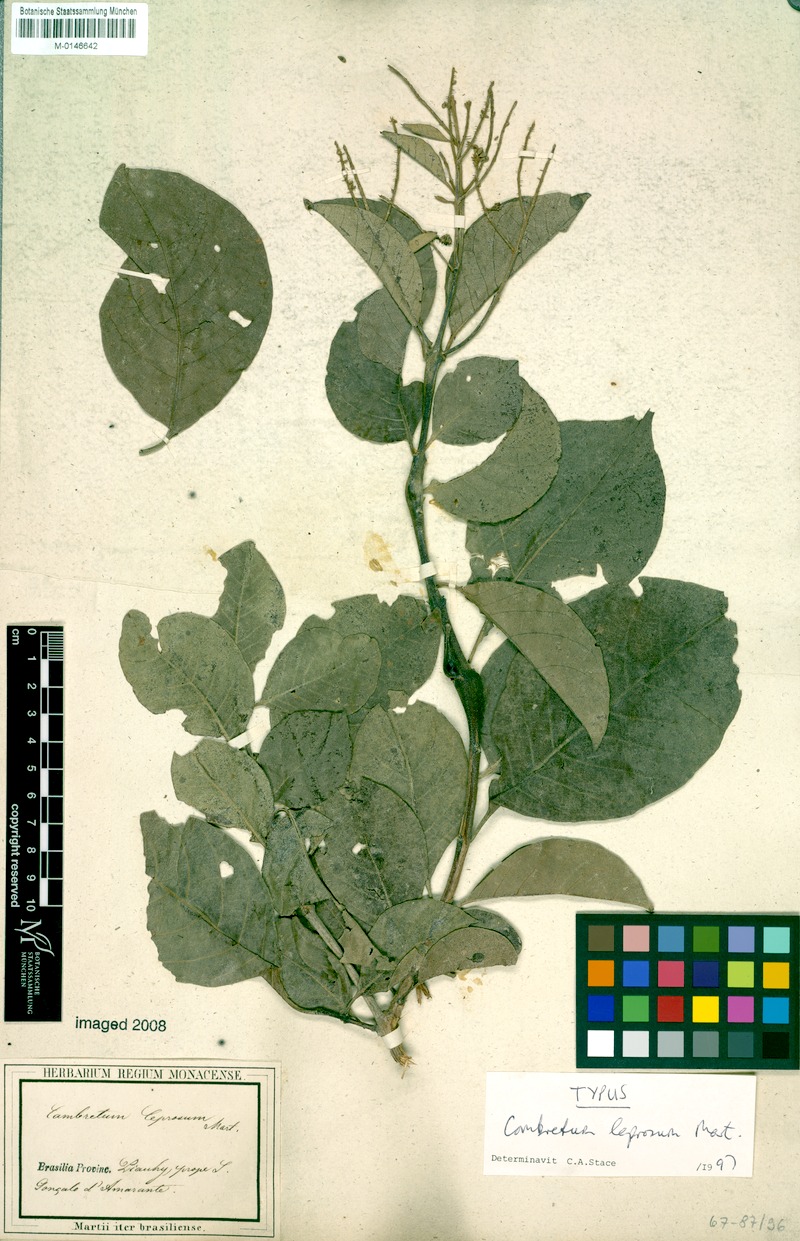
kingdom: Plantae
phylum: Tracheophyta
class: Magnoliopsida
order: Myrtales
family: Combretaceae
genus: Combretum
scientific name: Combretum leprosum
